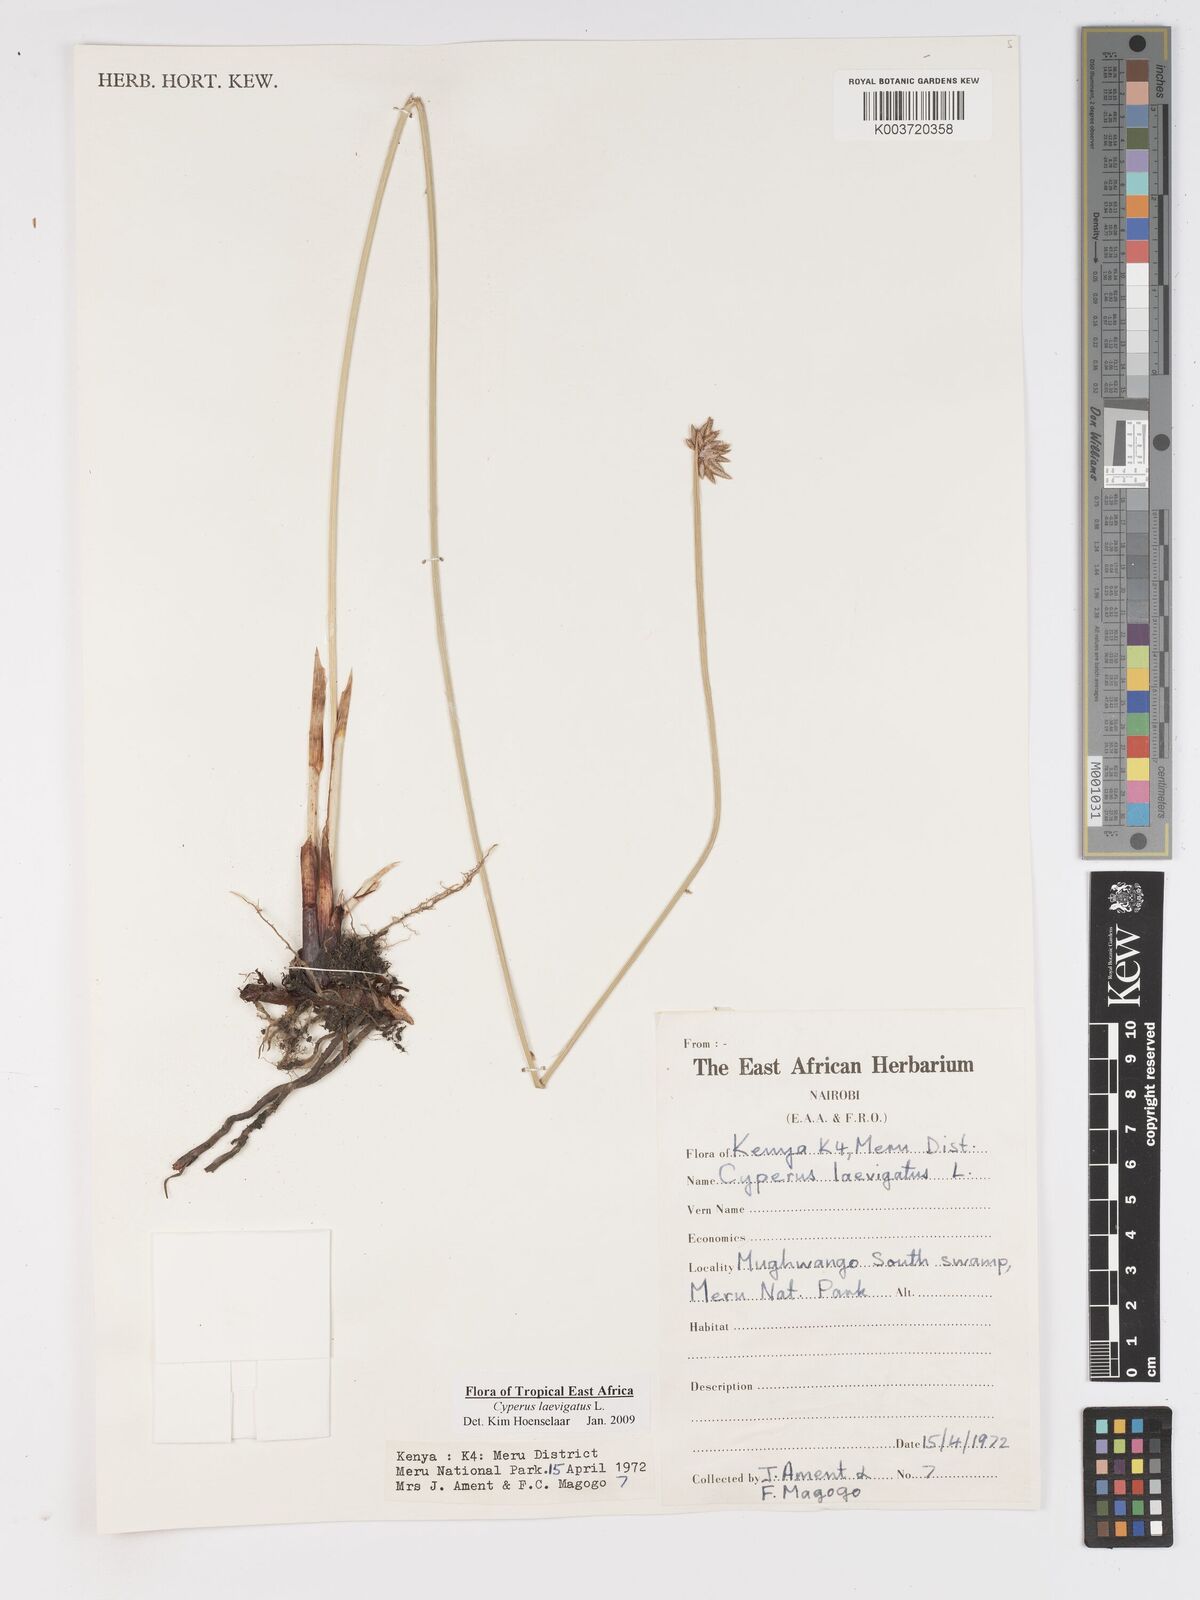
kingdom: Plantae
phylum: Tracheophyta
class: Liliopsida
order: Poales
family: Cyperaceae
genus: Cyperus
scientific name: Cyperus laevigatus
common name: Smooth flat sedge
